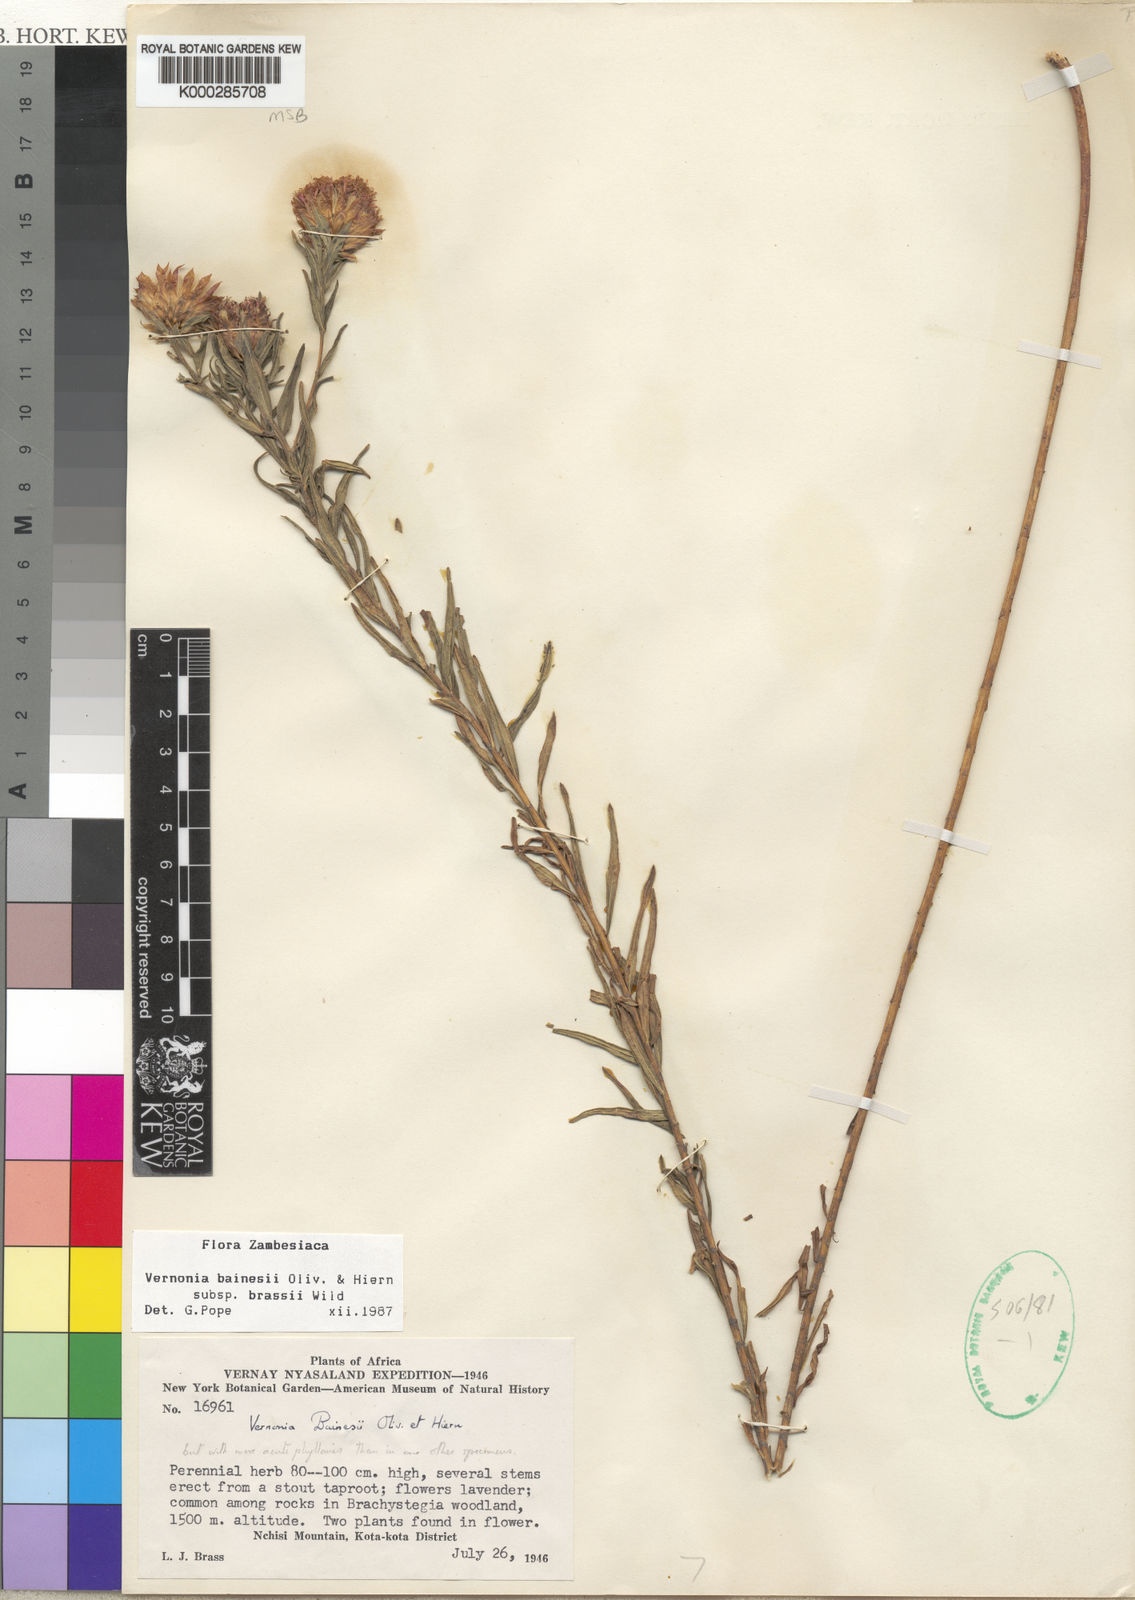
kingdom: Plantae
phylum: Tracheophyta
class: Magnoliopsida
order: Asterales
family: Asteraceae
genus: Crystallopollen
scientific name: Crystallopollen bainesii
